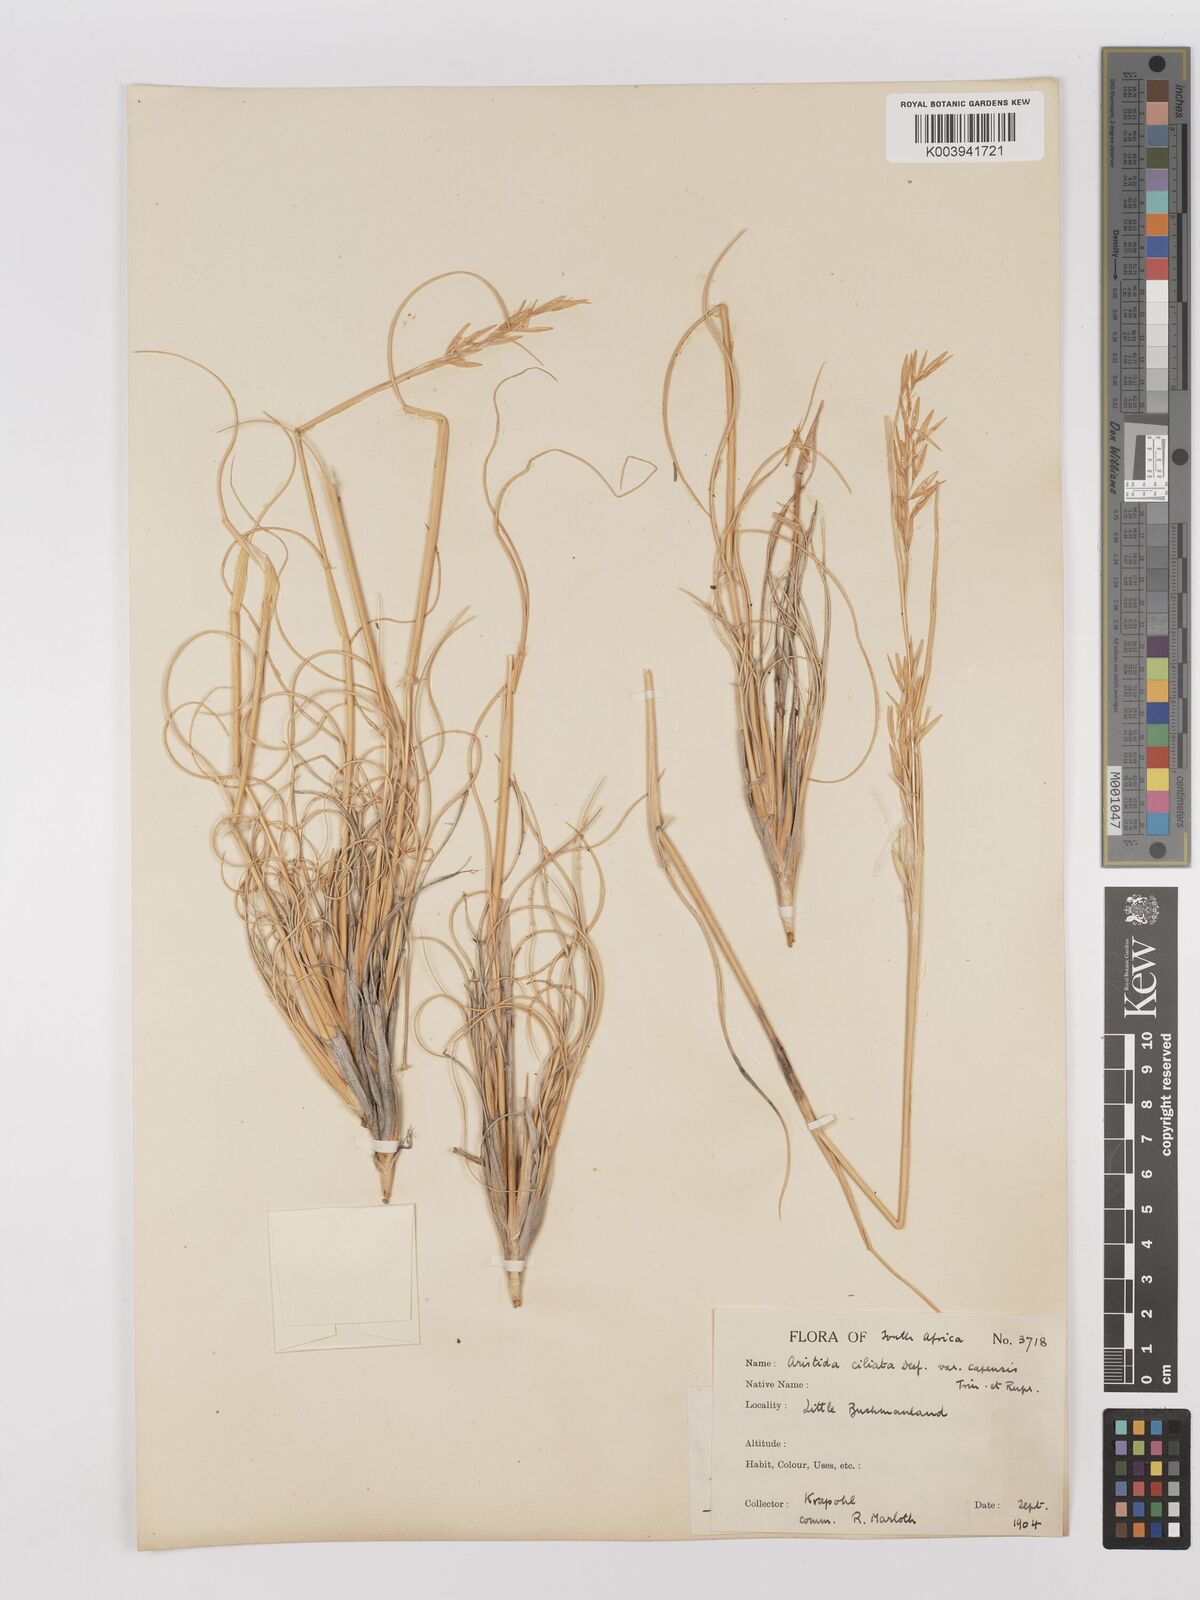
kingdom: Plantae
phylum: Tracheophyta
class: Liliopsida
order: Poales
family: Poaceae
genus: Stipagrostis
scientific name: Stipagrostis ciliata
